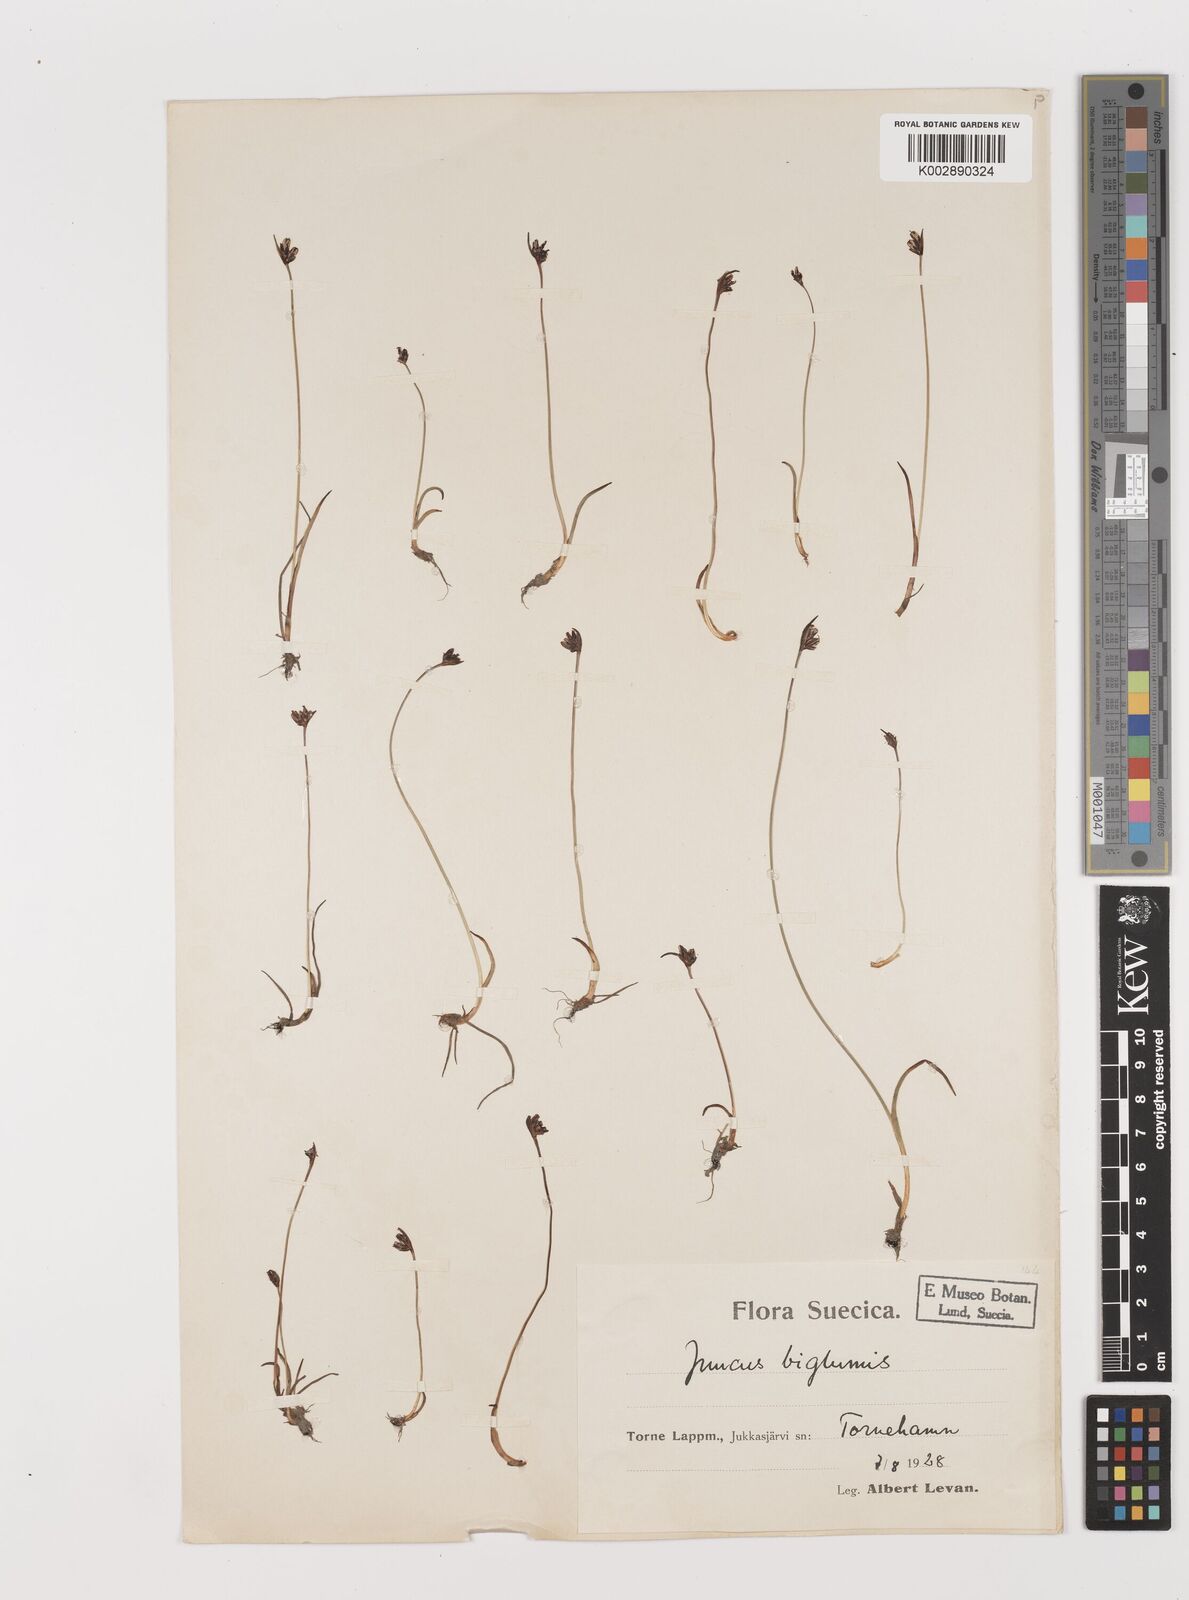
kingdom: Plantae
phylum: Tracheophyta
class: Liliopsida
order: Poales
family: Juncaceae
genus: Juncus
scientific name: Juncus biglumis
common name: Two-flowered rush
